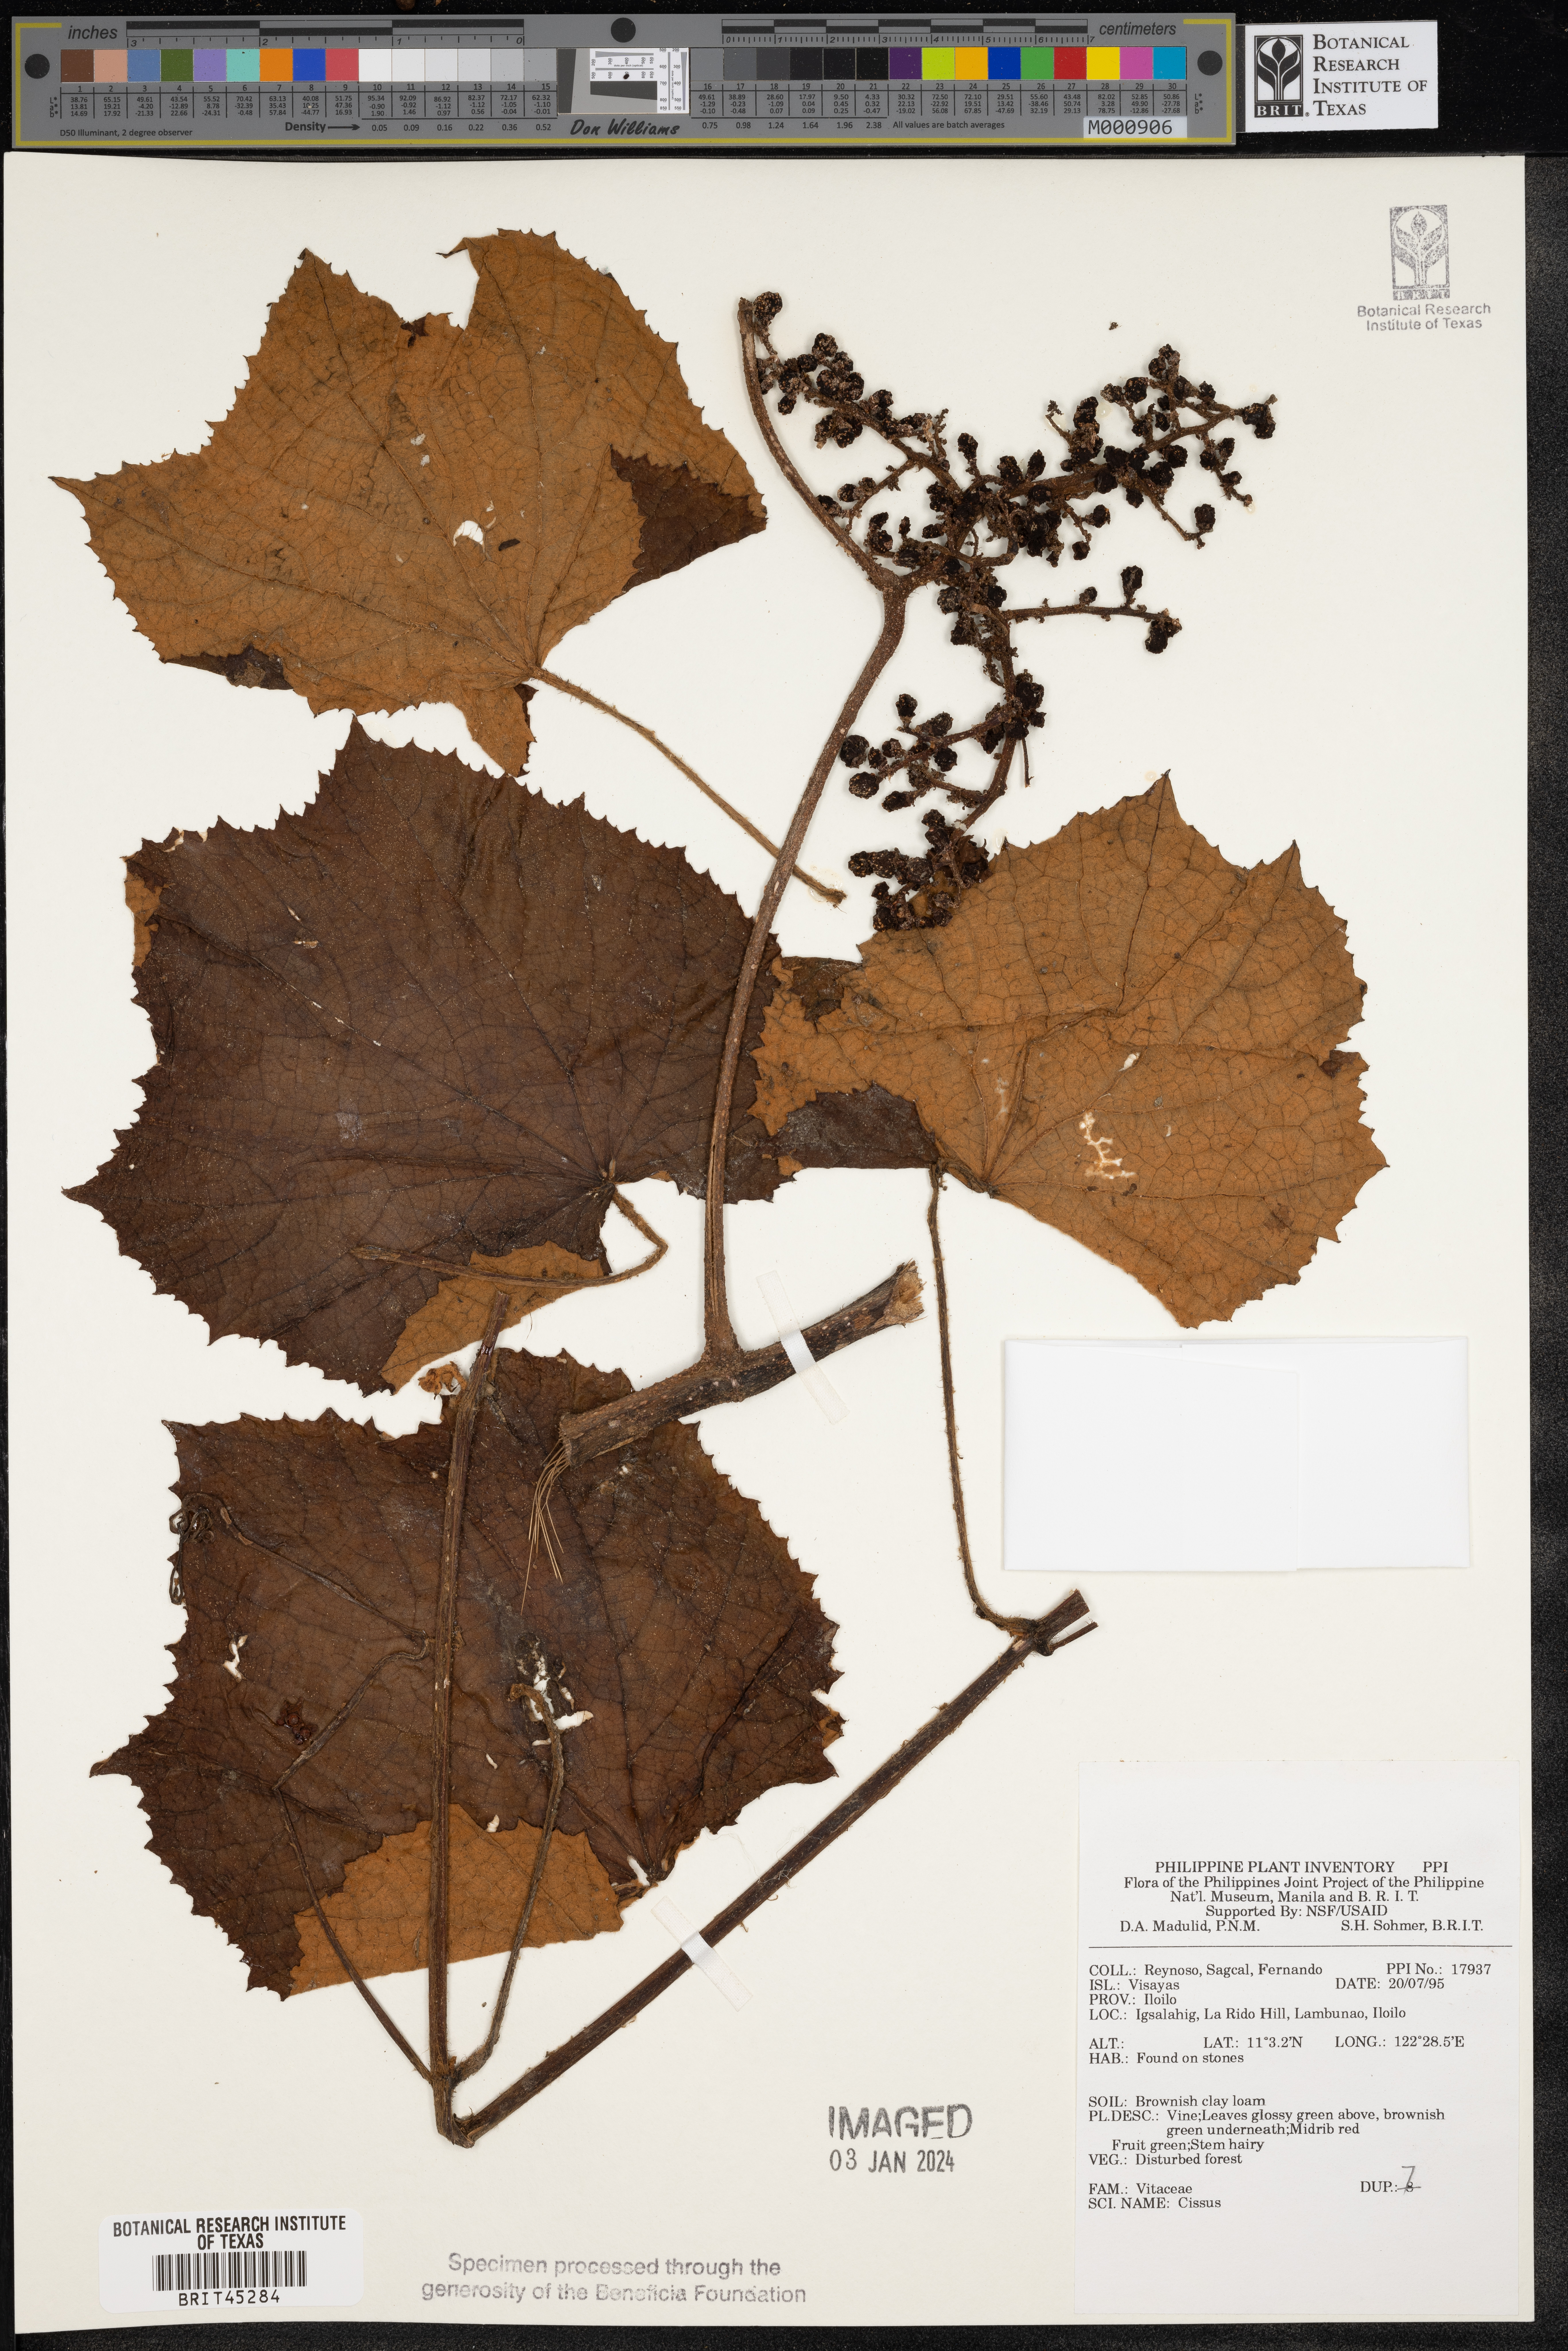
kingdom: Plantae
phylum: Tracheophyta
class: Magnoliopsida
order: Vitales
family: Vitaceae
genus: Cissus
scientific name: Cissus
